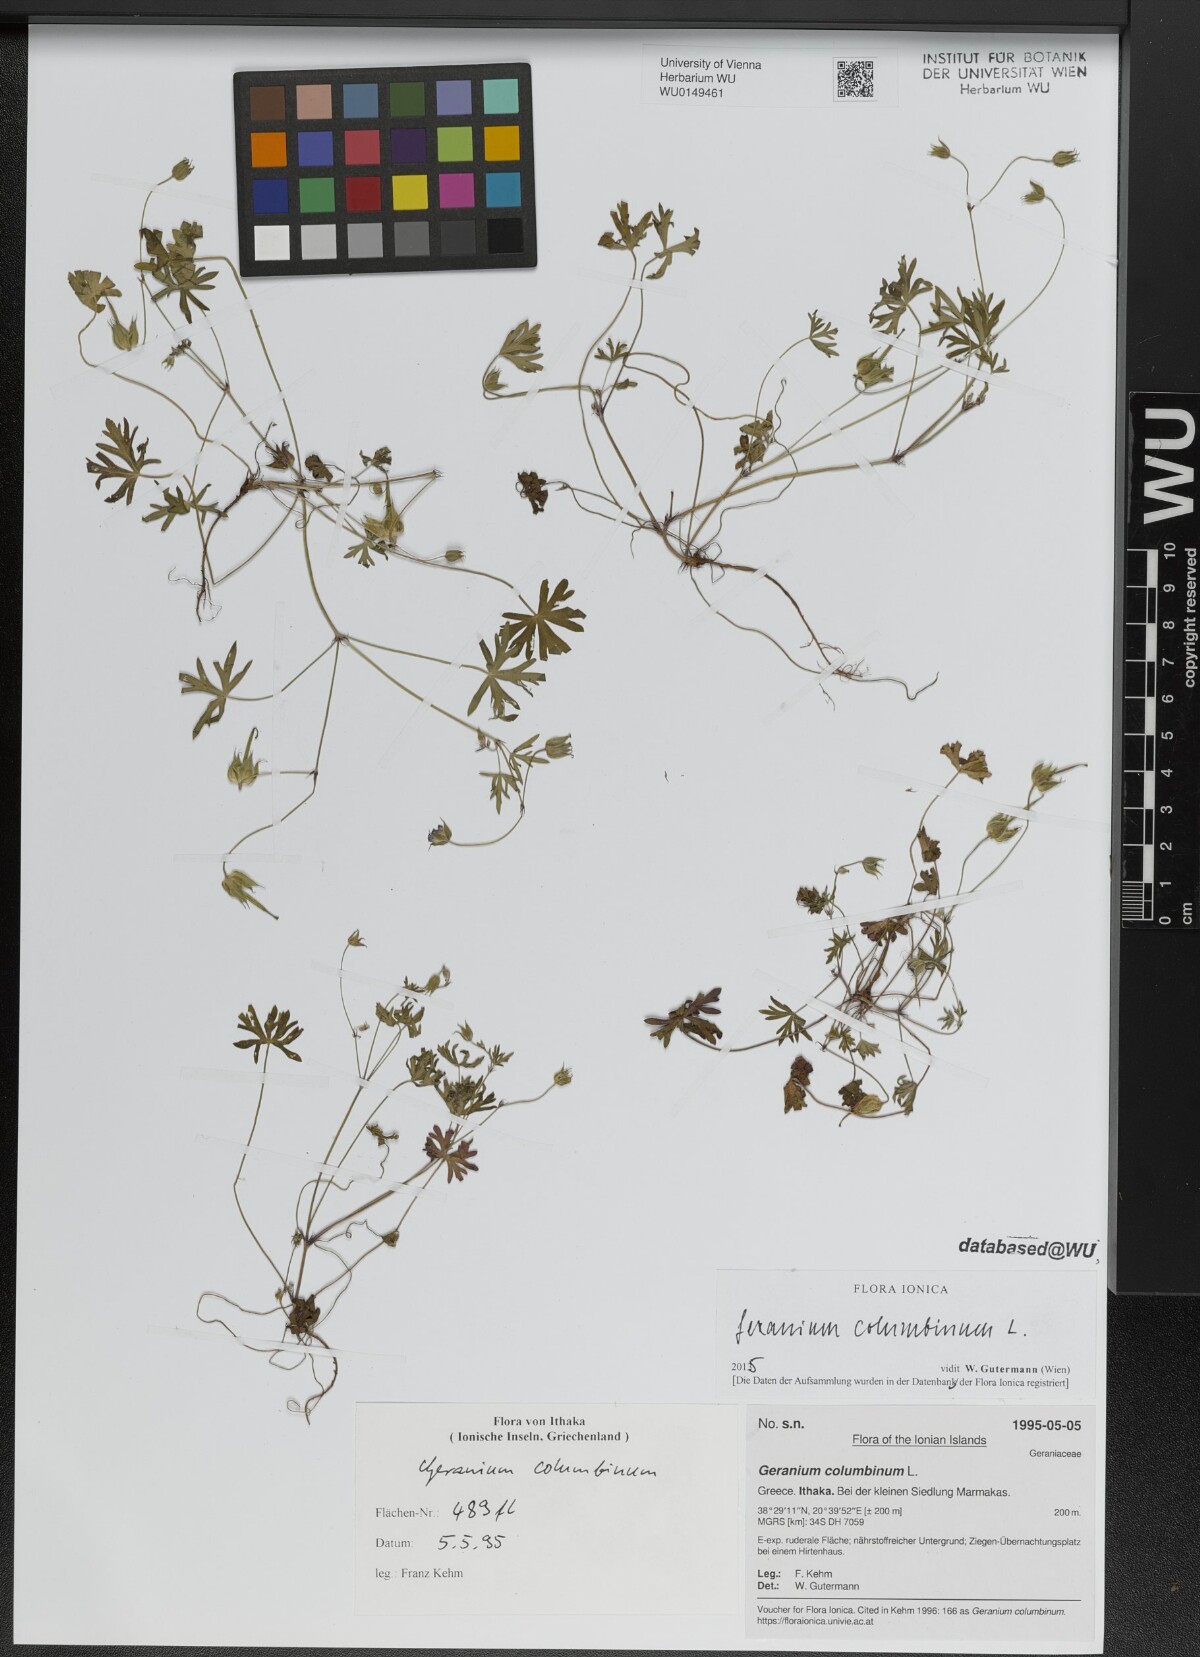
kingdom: Plantae
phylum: Tracheophyta
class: Magnoliopsida
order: Geraniales
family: Geraniaceae
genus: Geranium
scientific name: Geranium columbinum
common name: Long-stalked crane's-bill
